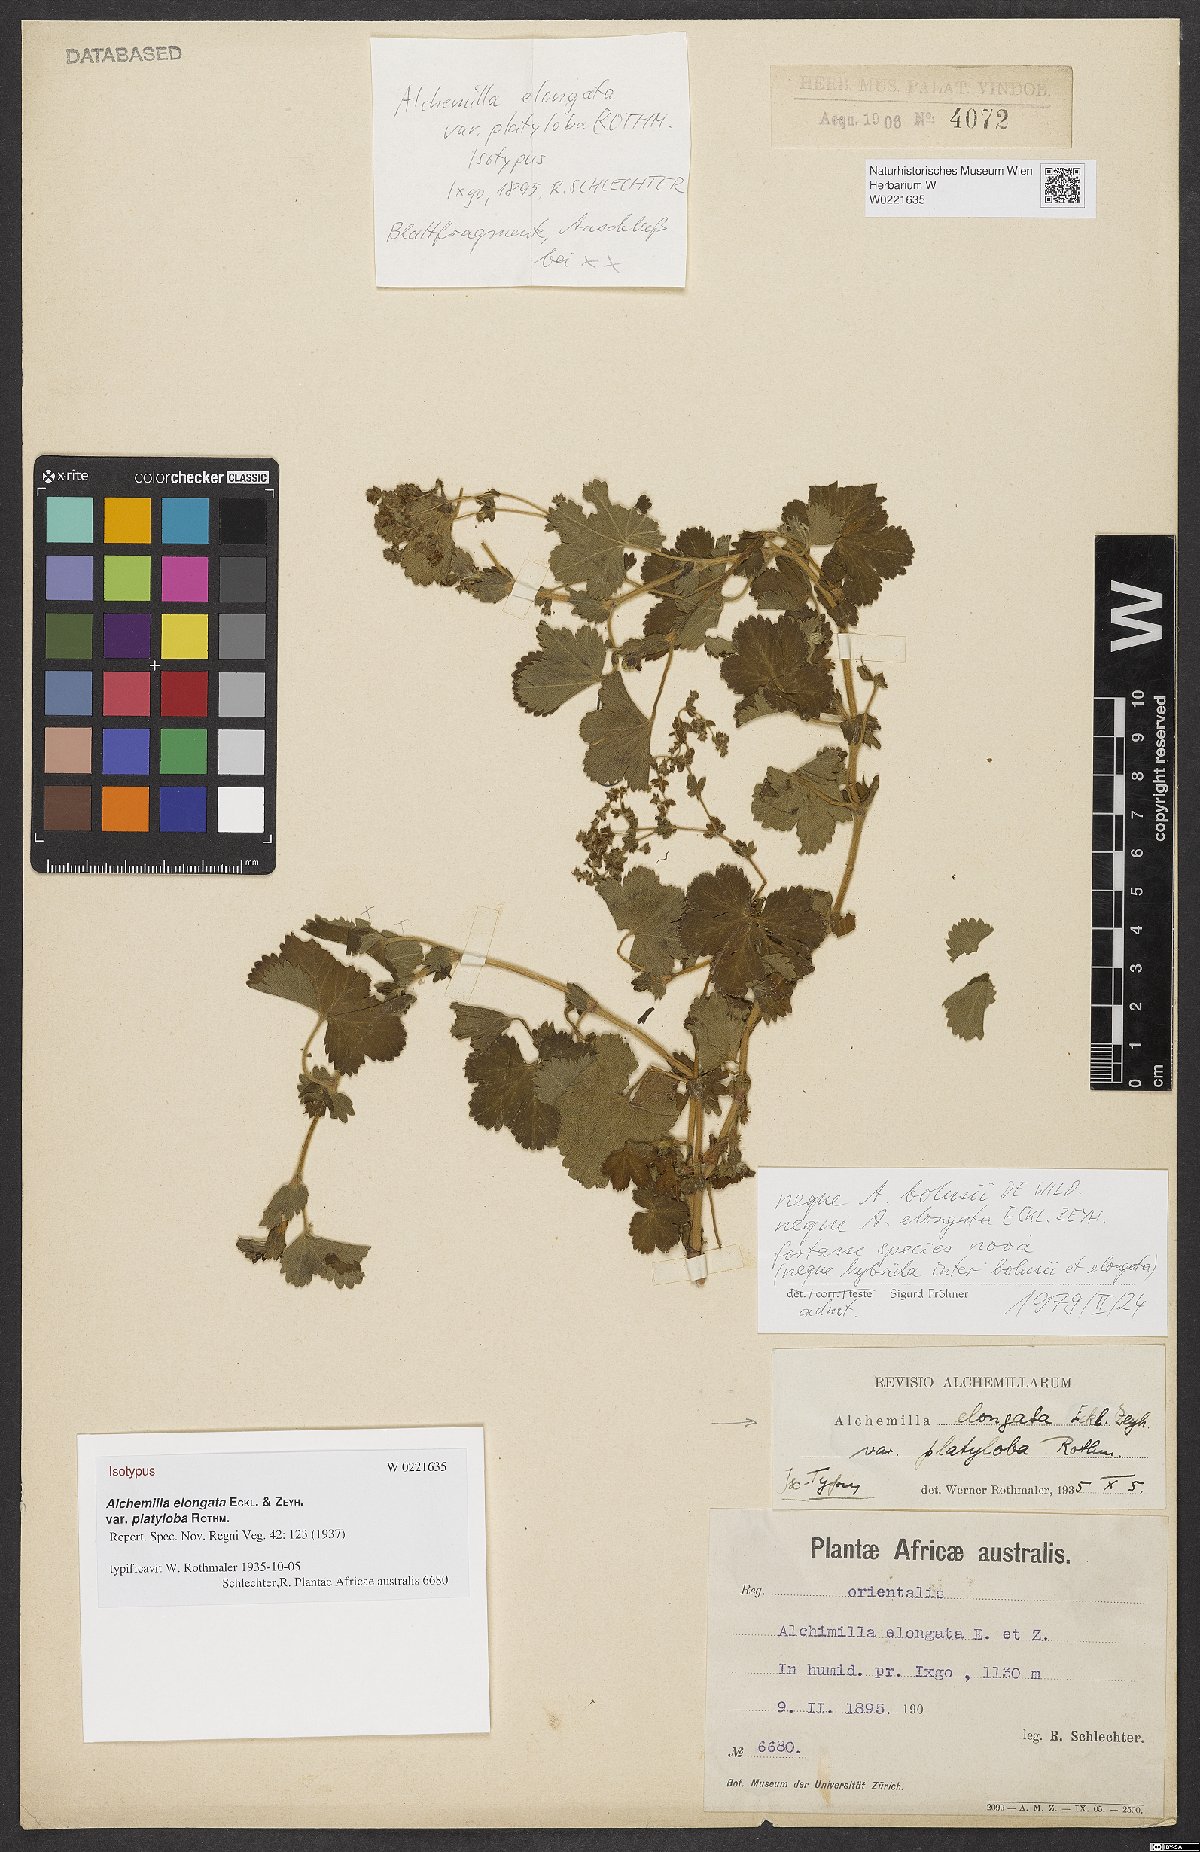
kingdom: Plantae
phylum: Tracheophyta
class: Magnoliopsida
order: Rosales
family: Rosaceae
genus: Alchemilla
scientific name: Alchemilla elongata
